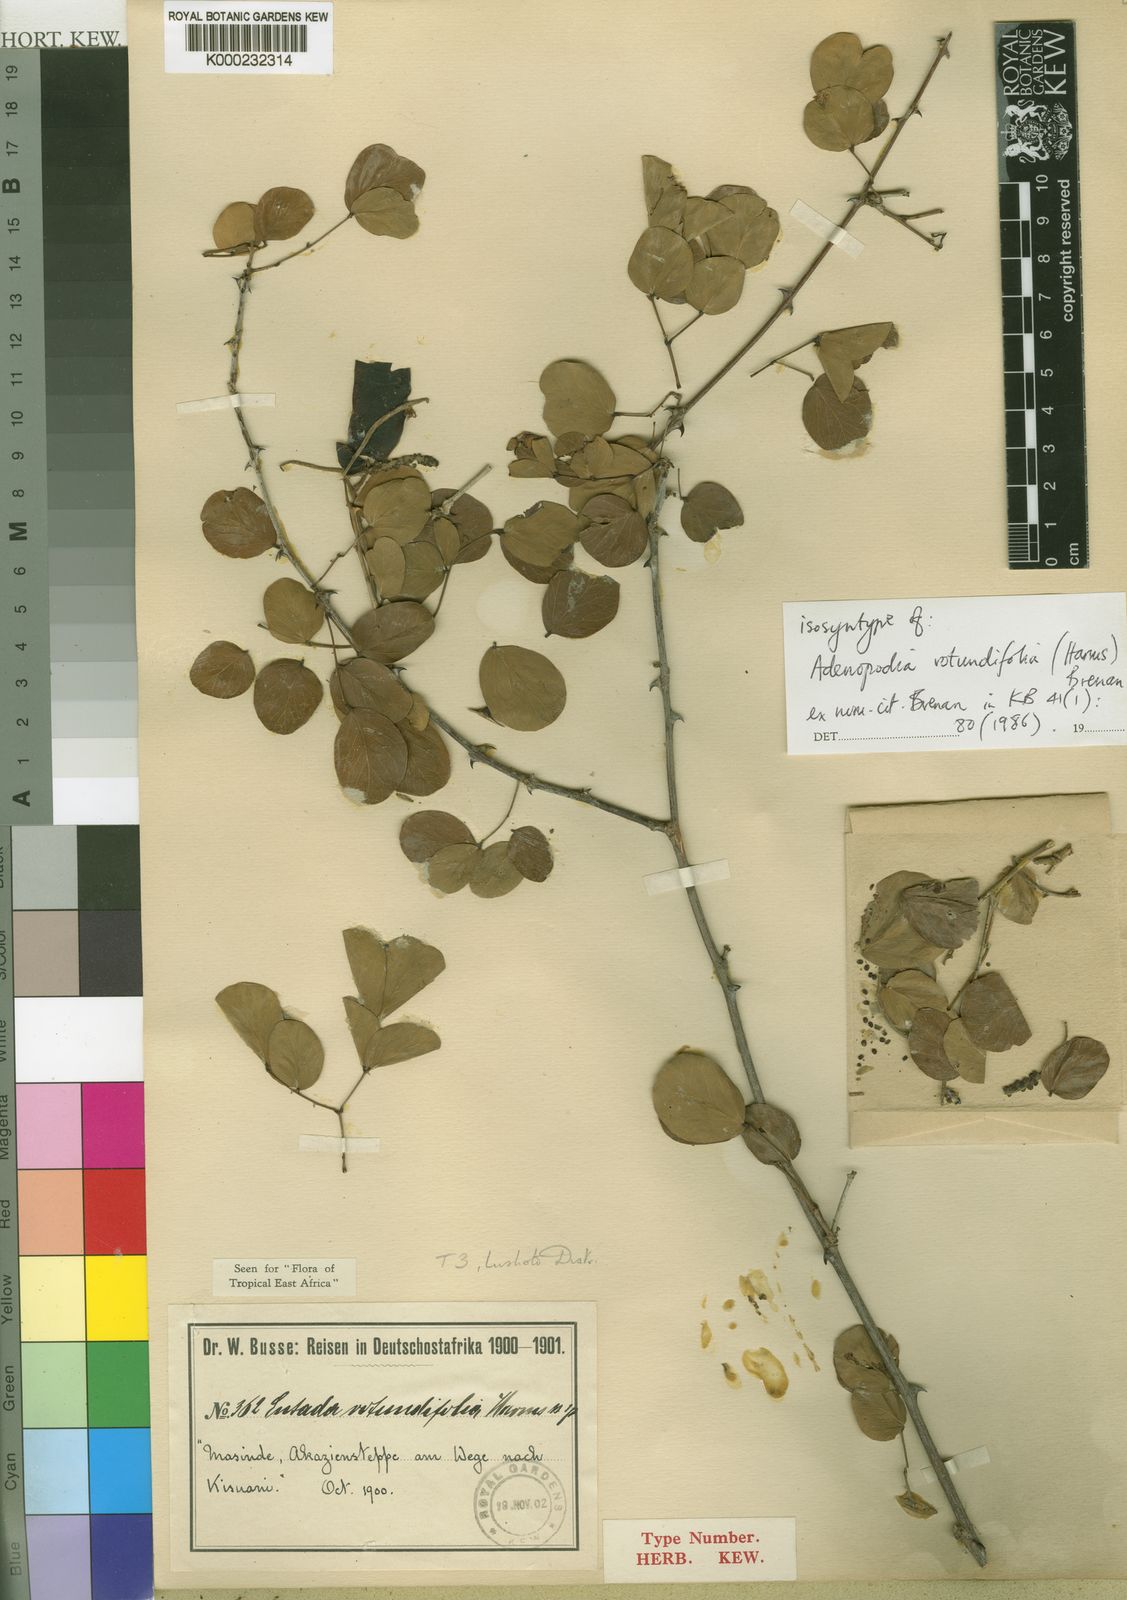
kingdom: Plantae
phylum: Tracheophyta
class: Magnoliopsida
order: Fabales
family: Fabaceae
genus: Adenopodia
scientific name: Adenopodia rotundifolia
